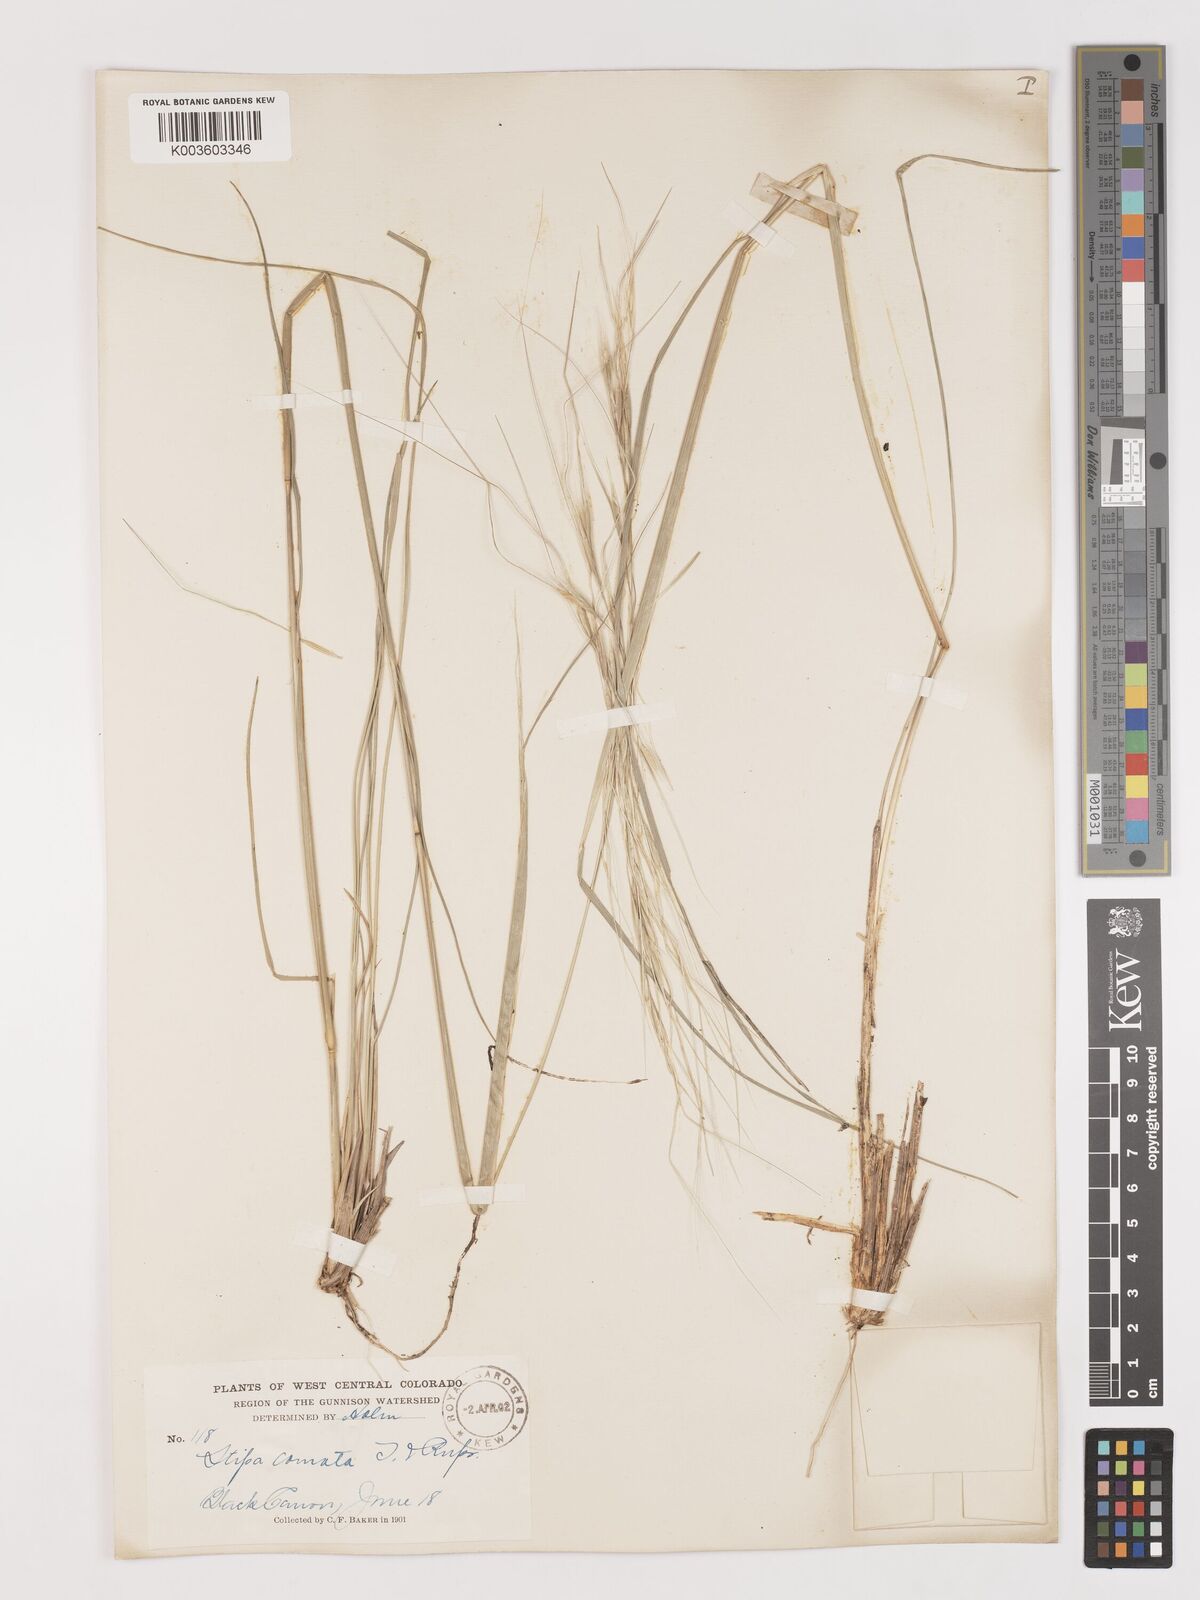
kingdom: Plantae
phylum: Tracheophyta
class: Liliopsida
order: Poales
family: Poaceae
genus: Hesperostipa
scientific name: Hesperostipa comata
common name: Needle-and-thread grass
